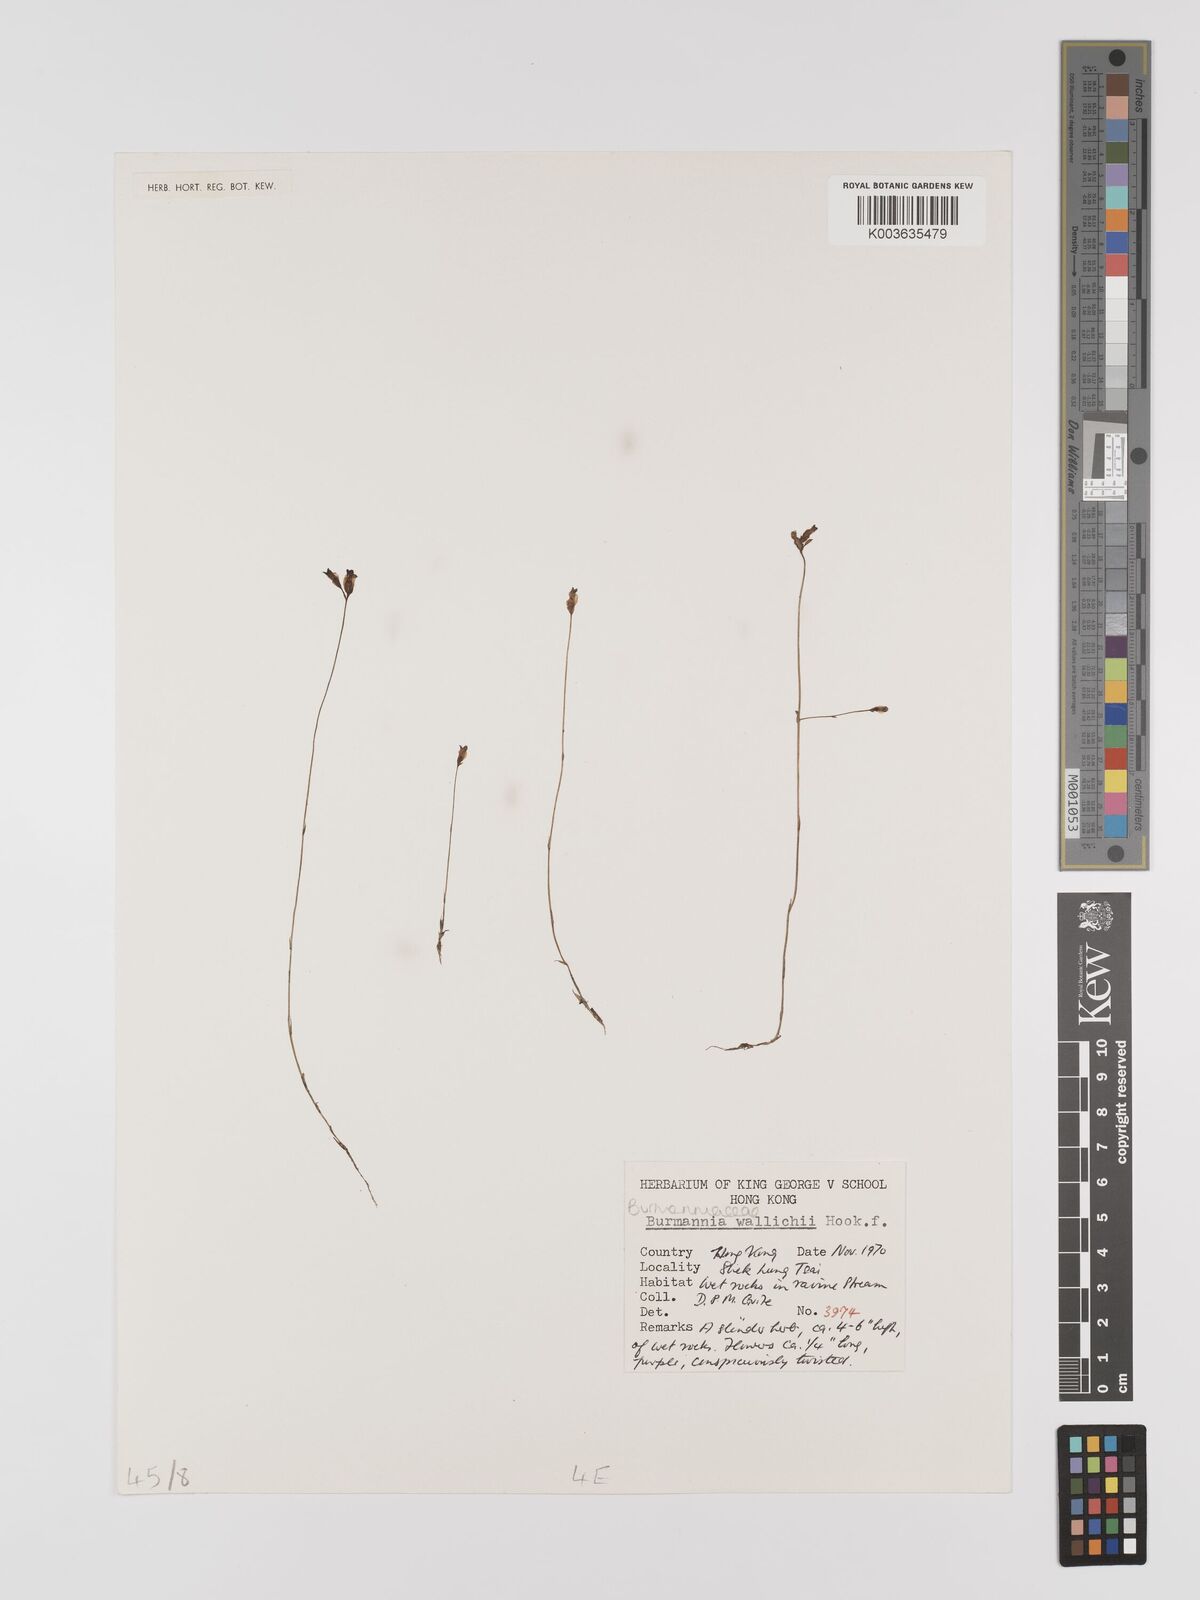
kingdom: Plantae
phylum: Tracheophyta
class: Liliopsida
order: Dioscoreales
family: Burmanniaceae
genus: Burmannia
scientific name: Burmannia wallichii
